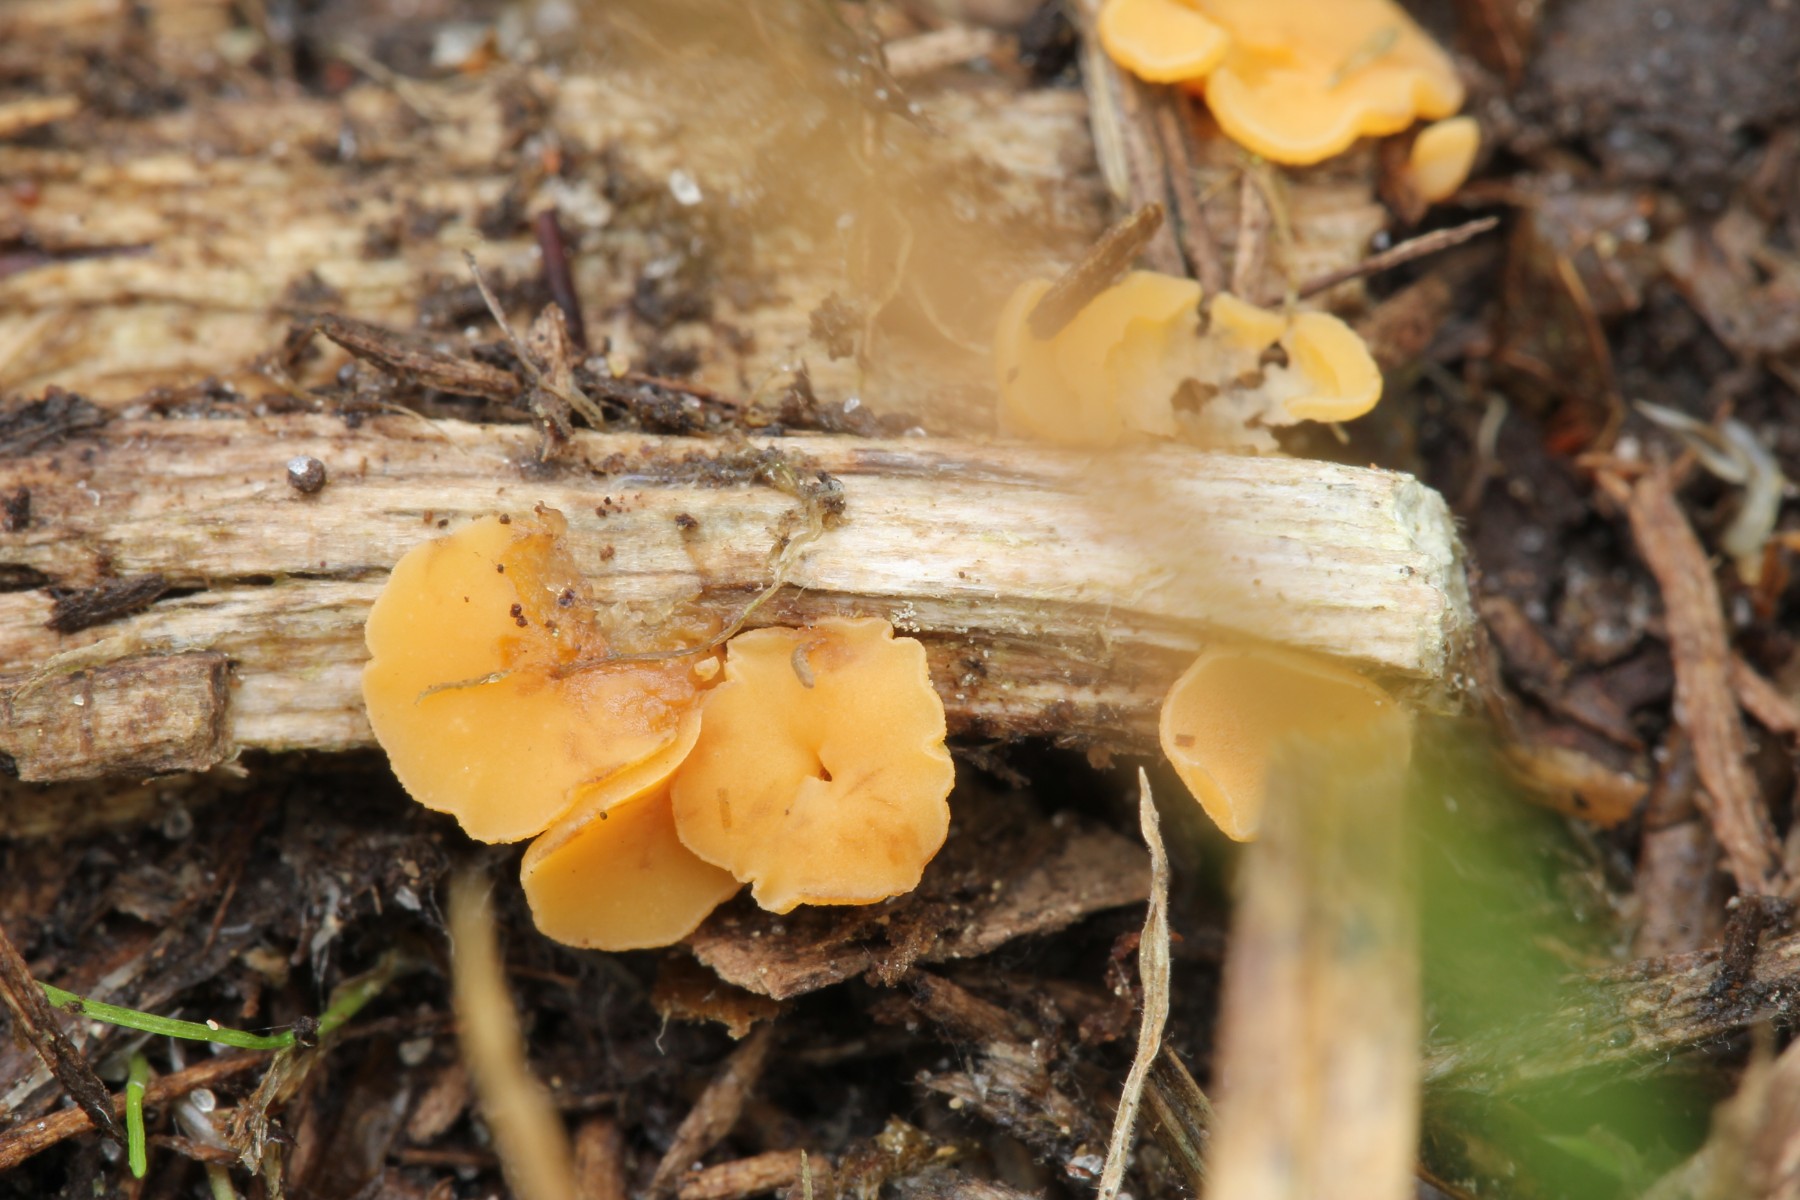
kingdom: Fungi
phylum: Ascomycota
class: Leotiomycetes
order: Helotiales
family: Helotiaceae
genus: Hymenoscyphus
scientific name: Hymenoscyphus epiphyllus
